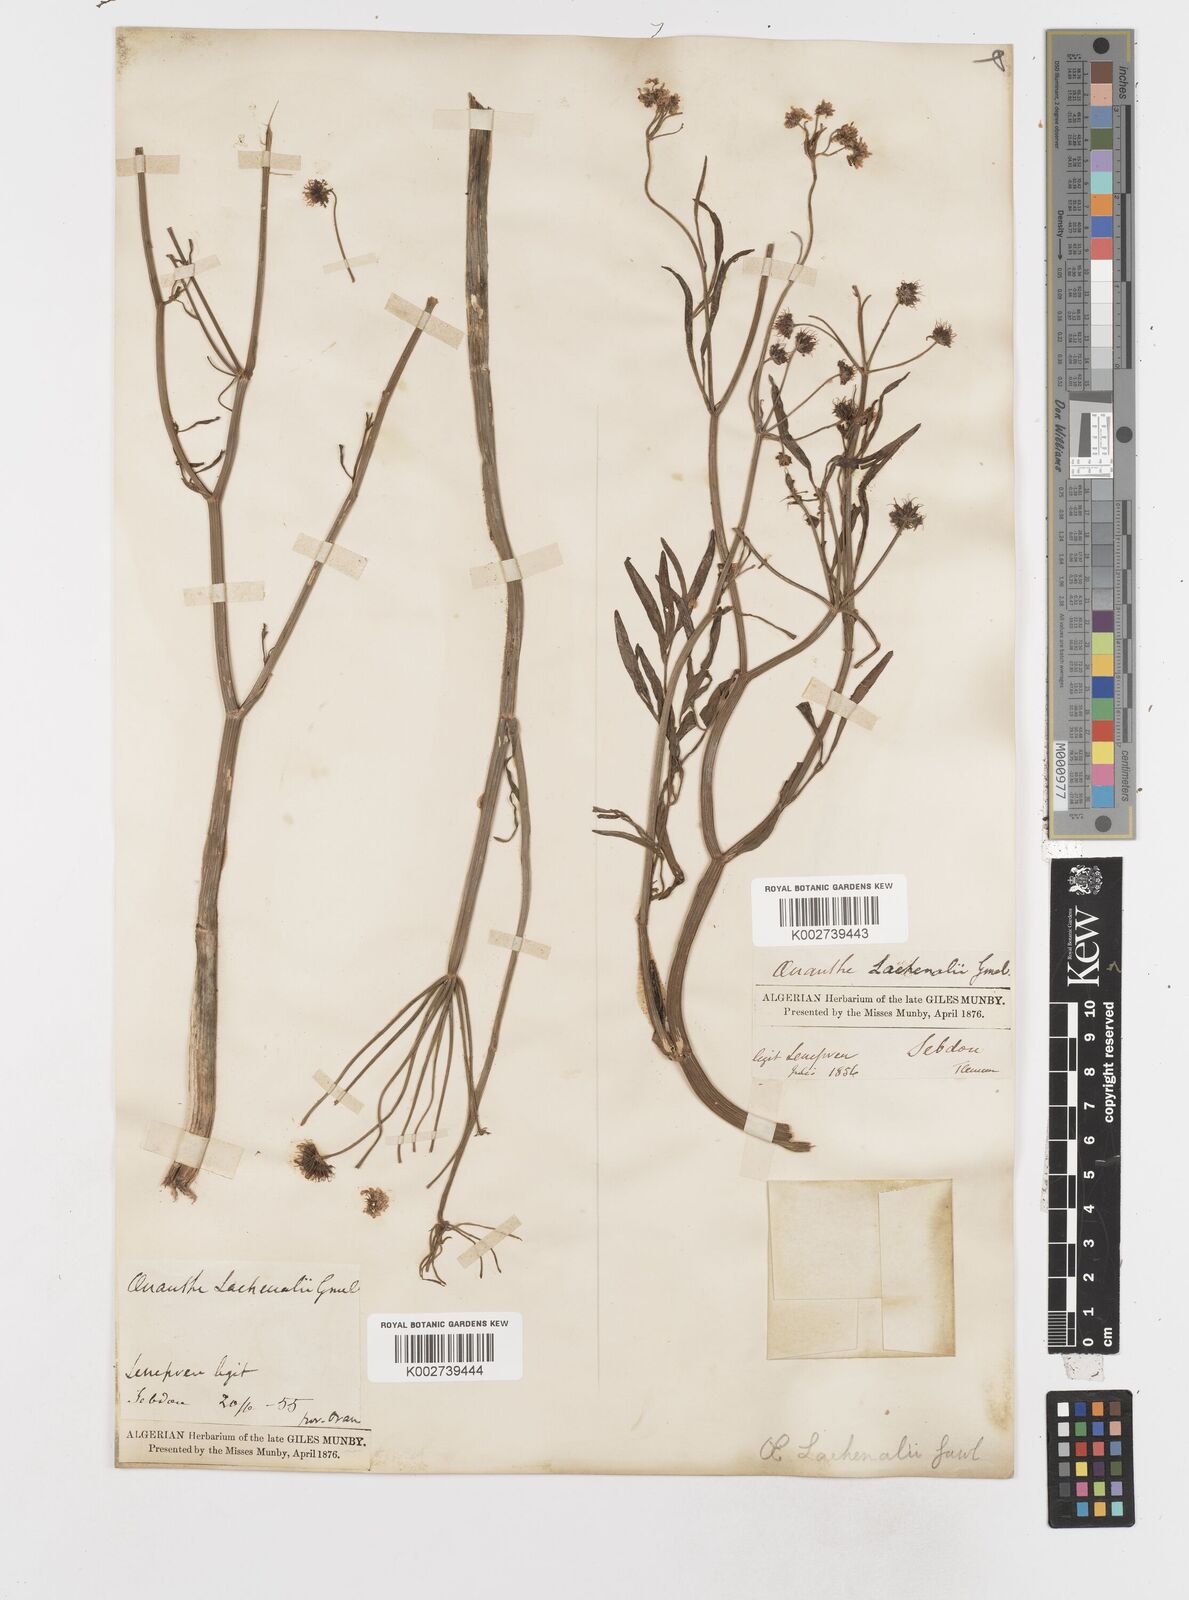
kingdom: Plantae
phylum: Tracheophyta
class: Magnoliopsida
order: Apiales
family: Apiaceae
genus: Oenanthe
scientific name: Oenanthe lachenalii
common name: Parsley water-dropwort
